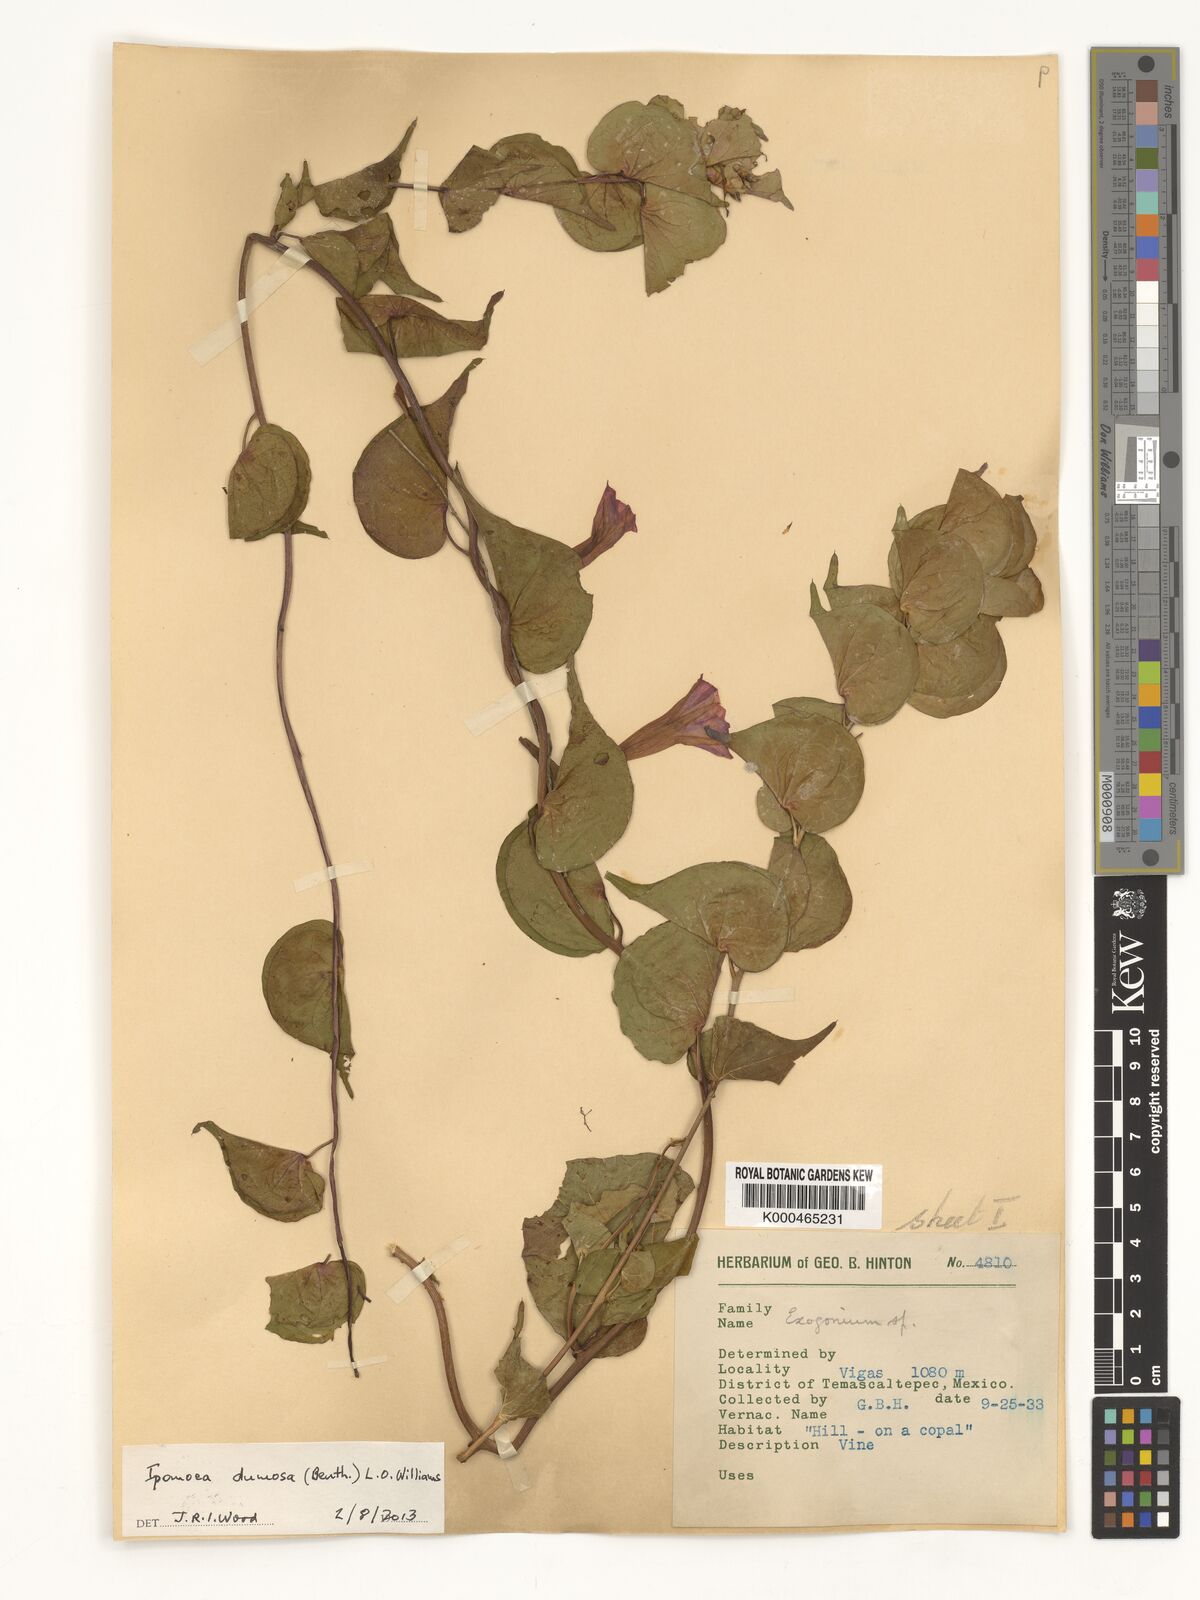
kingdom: Plantae
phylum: Tracheophyta
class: Magnoliopsida
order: Solanales
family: Convolvulaceae
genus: Ipomoea
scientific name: Ipomoea bracteata
